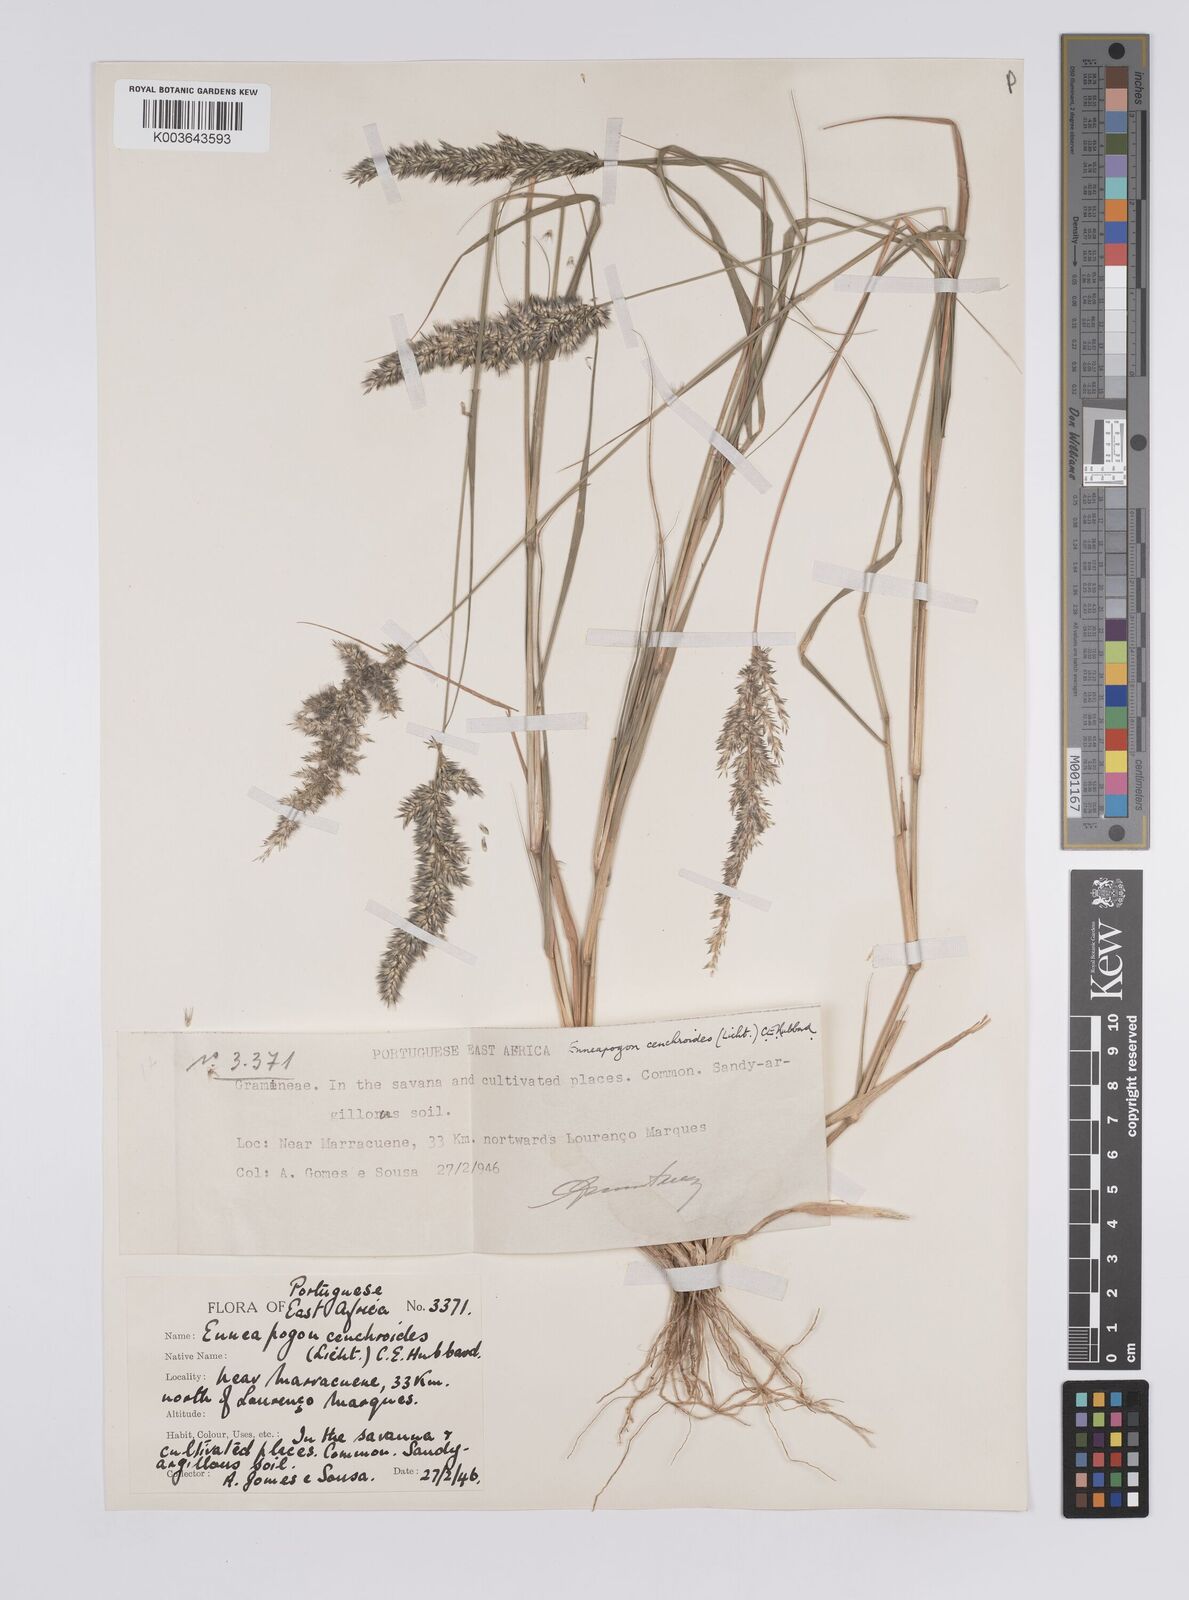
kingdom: Plantae
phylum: Tracheophyta
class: Liliopsida
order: Poales
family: Poaceae
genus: Enneapogon
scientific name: Enneapogon cenchroides
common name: Soft feather pappusgrass
